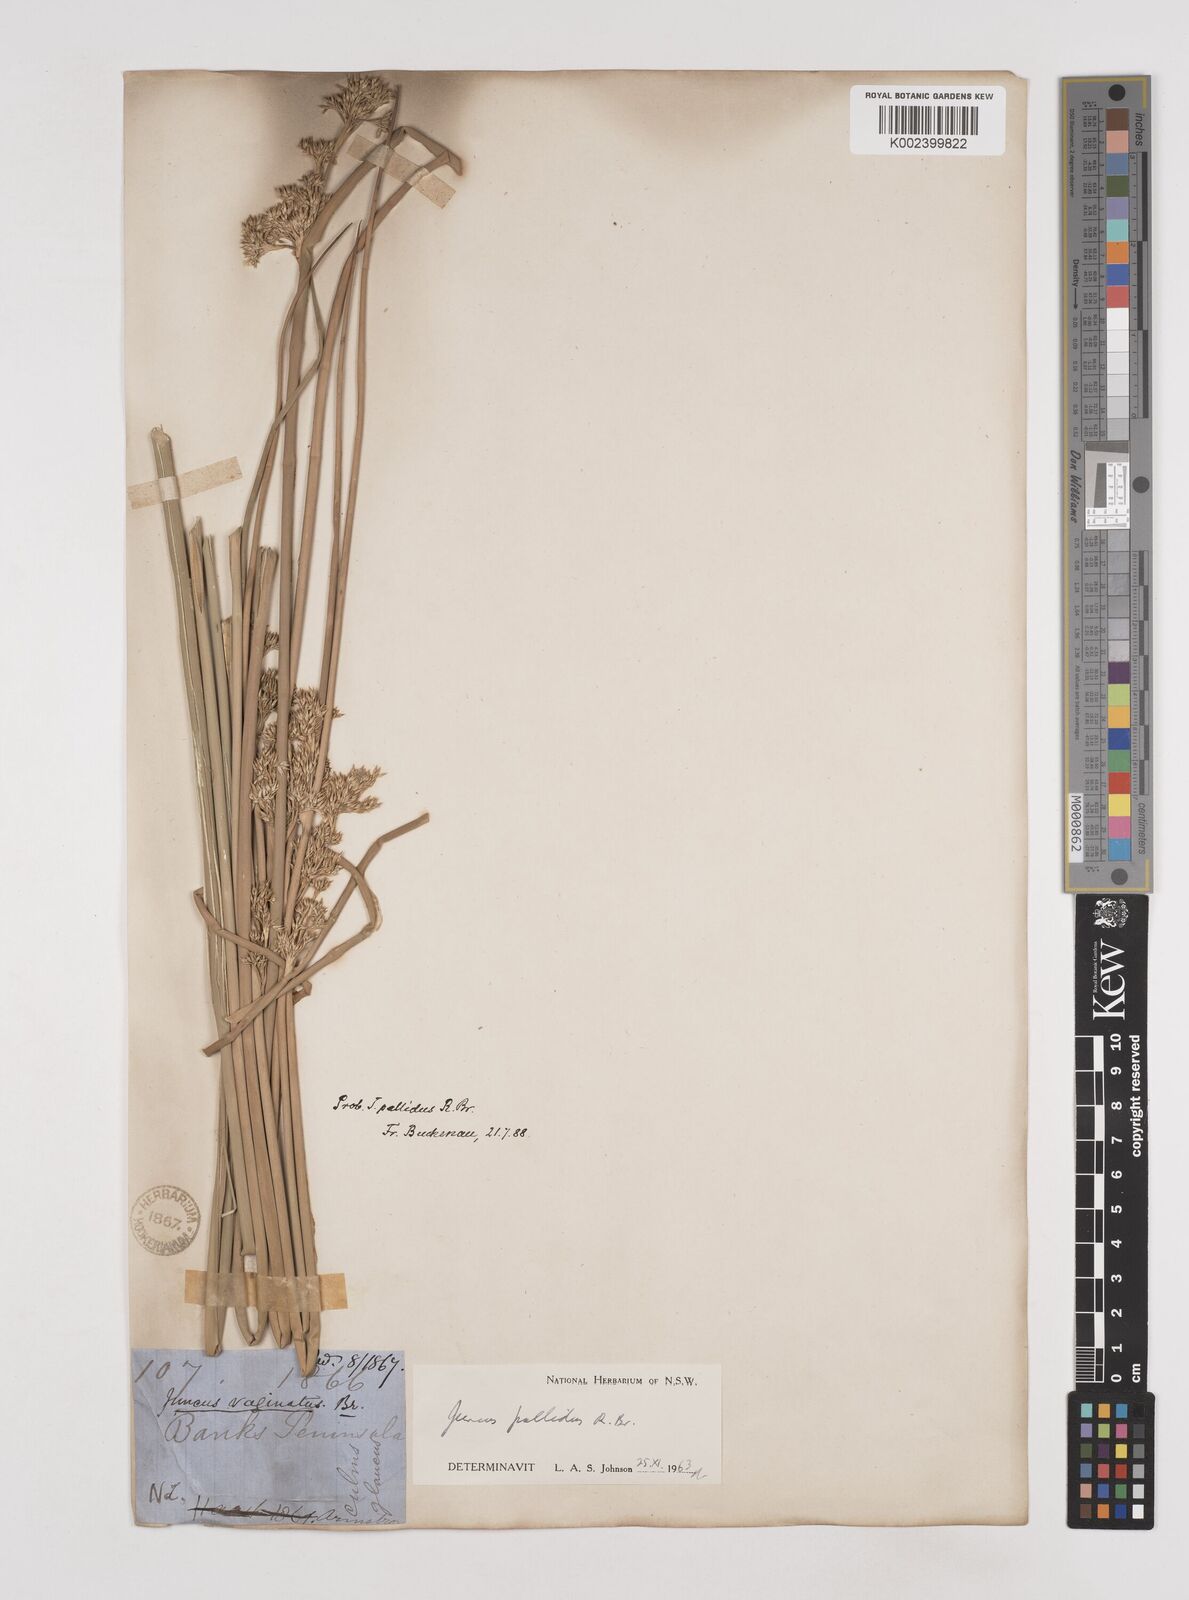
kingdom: Plantae
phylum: Tracheophyta
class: Liliopsida
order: Poales
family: Juncaceae
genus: Juncus
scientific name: Juncus pallidus
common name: Great soft-rush
